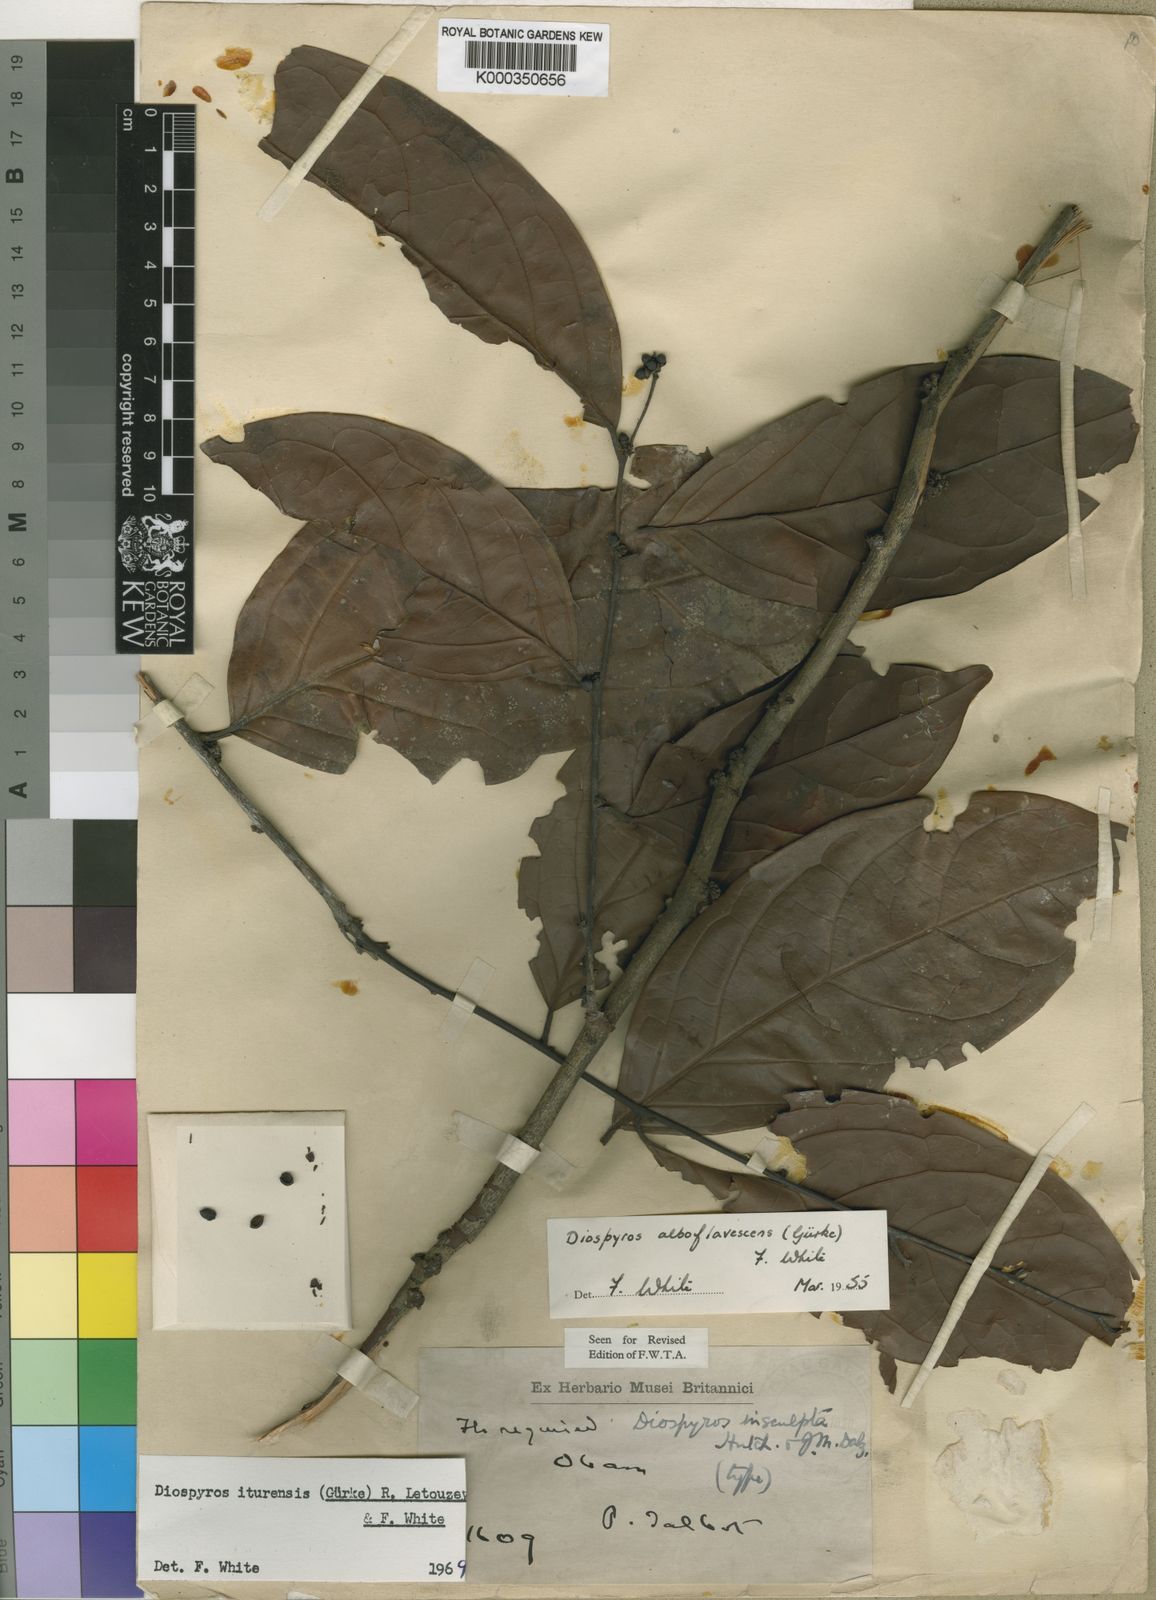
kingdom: Plantae
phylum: Tracheophyta
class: Magnoliopsida
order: Ericales
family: Ebenaceae
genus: Diospyros
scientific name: Diospyros
